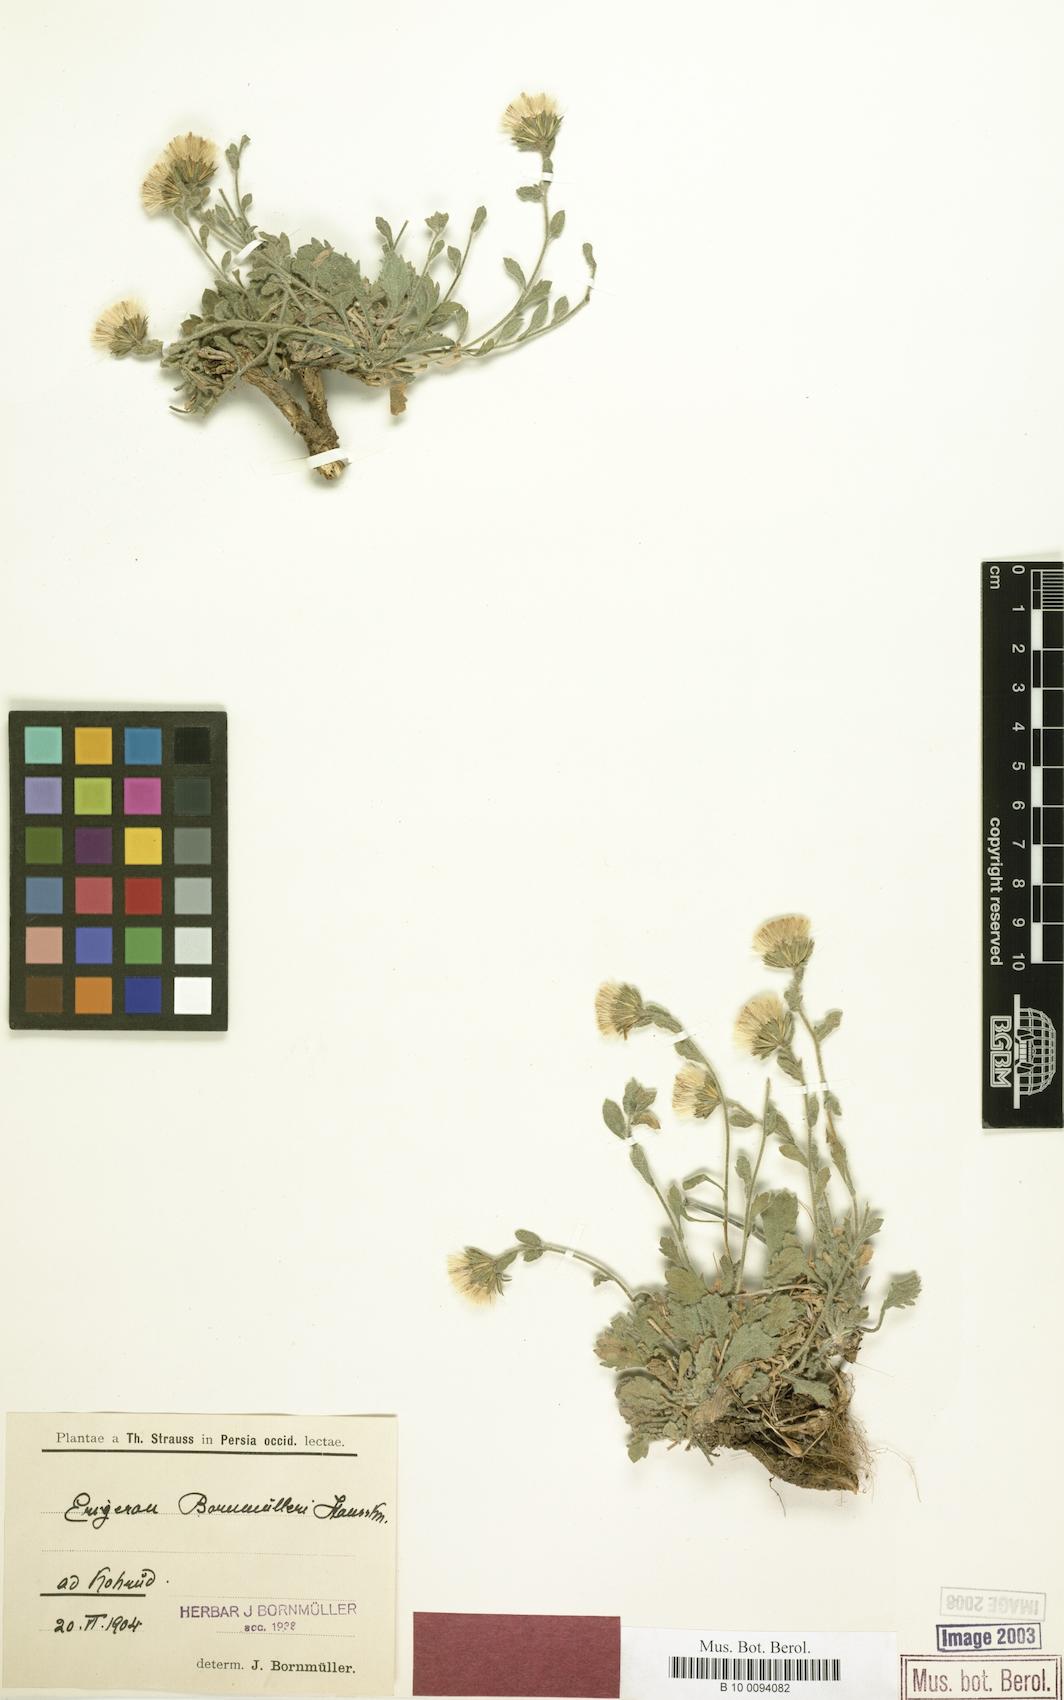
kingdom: Plantae
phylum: Tracheophyta
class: Magnoliopsida
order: Asterales
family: Asteraceae
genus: Symphyotrichum
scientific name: Symphyotrichum ciliatum
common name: Rayless annual aster
